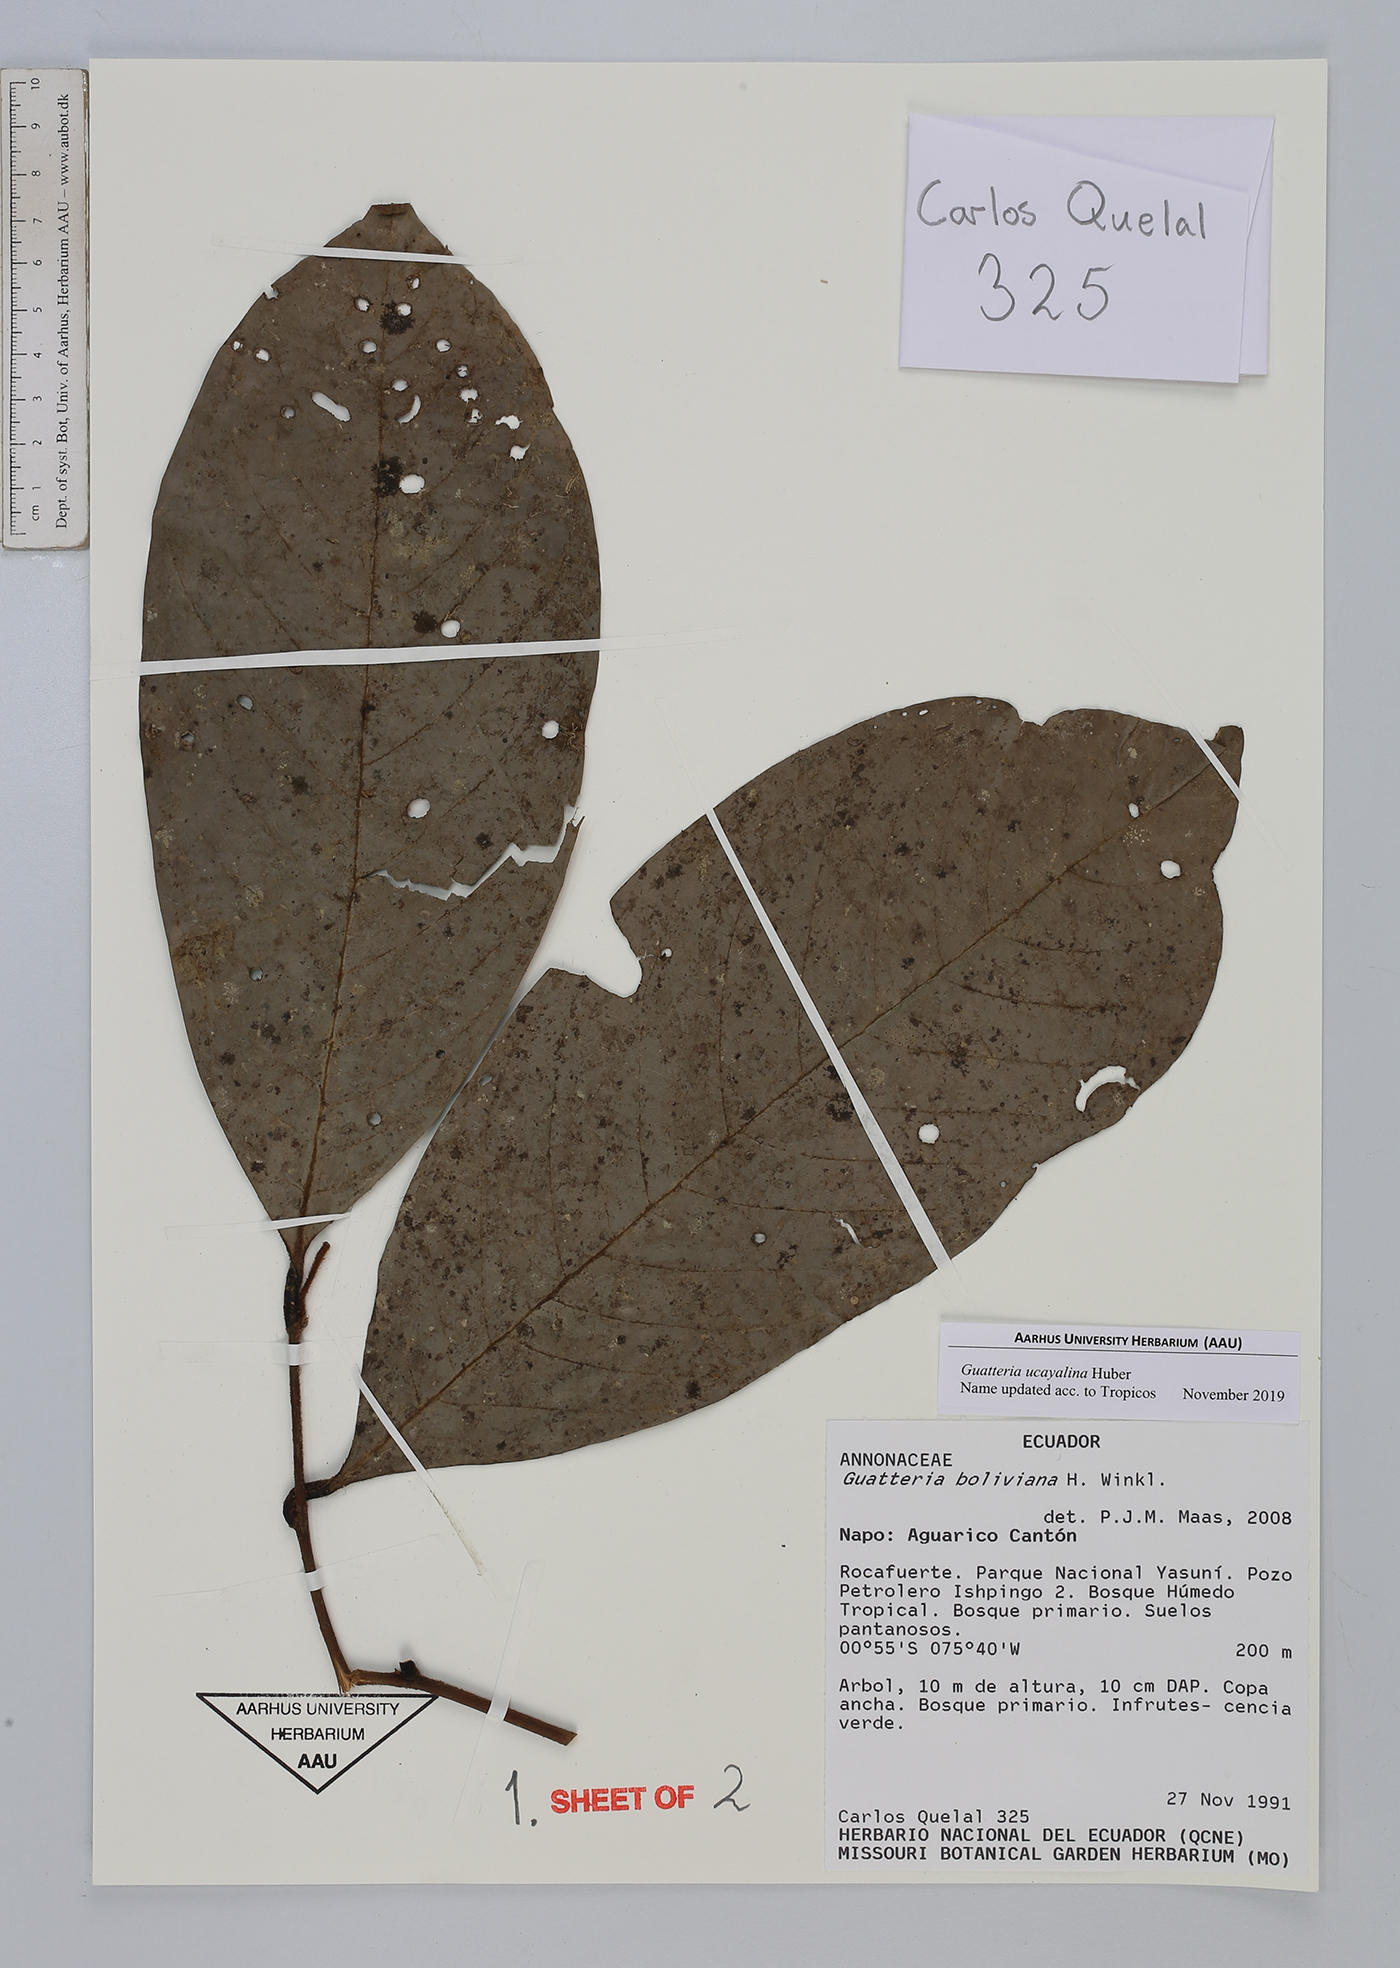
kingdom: Plantae
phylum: Tracheophyta
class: Magnoliopsida
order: Magnoliales
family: Annonaceae
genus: Guatteria
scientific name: Guatteria blepharophylla
